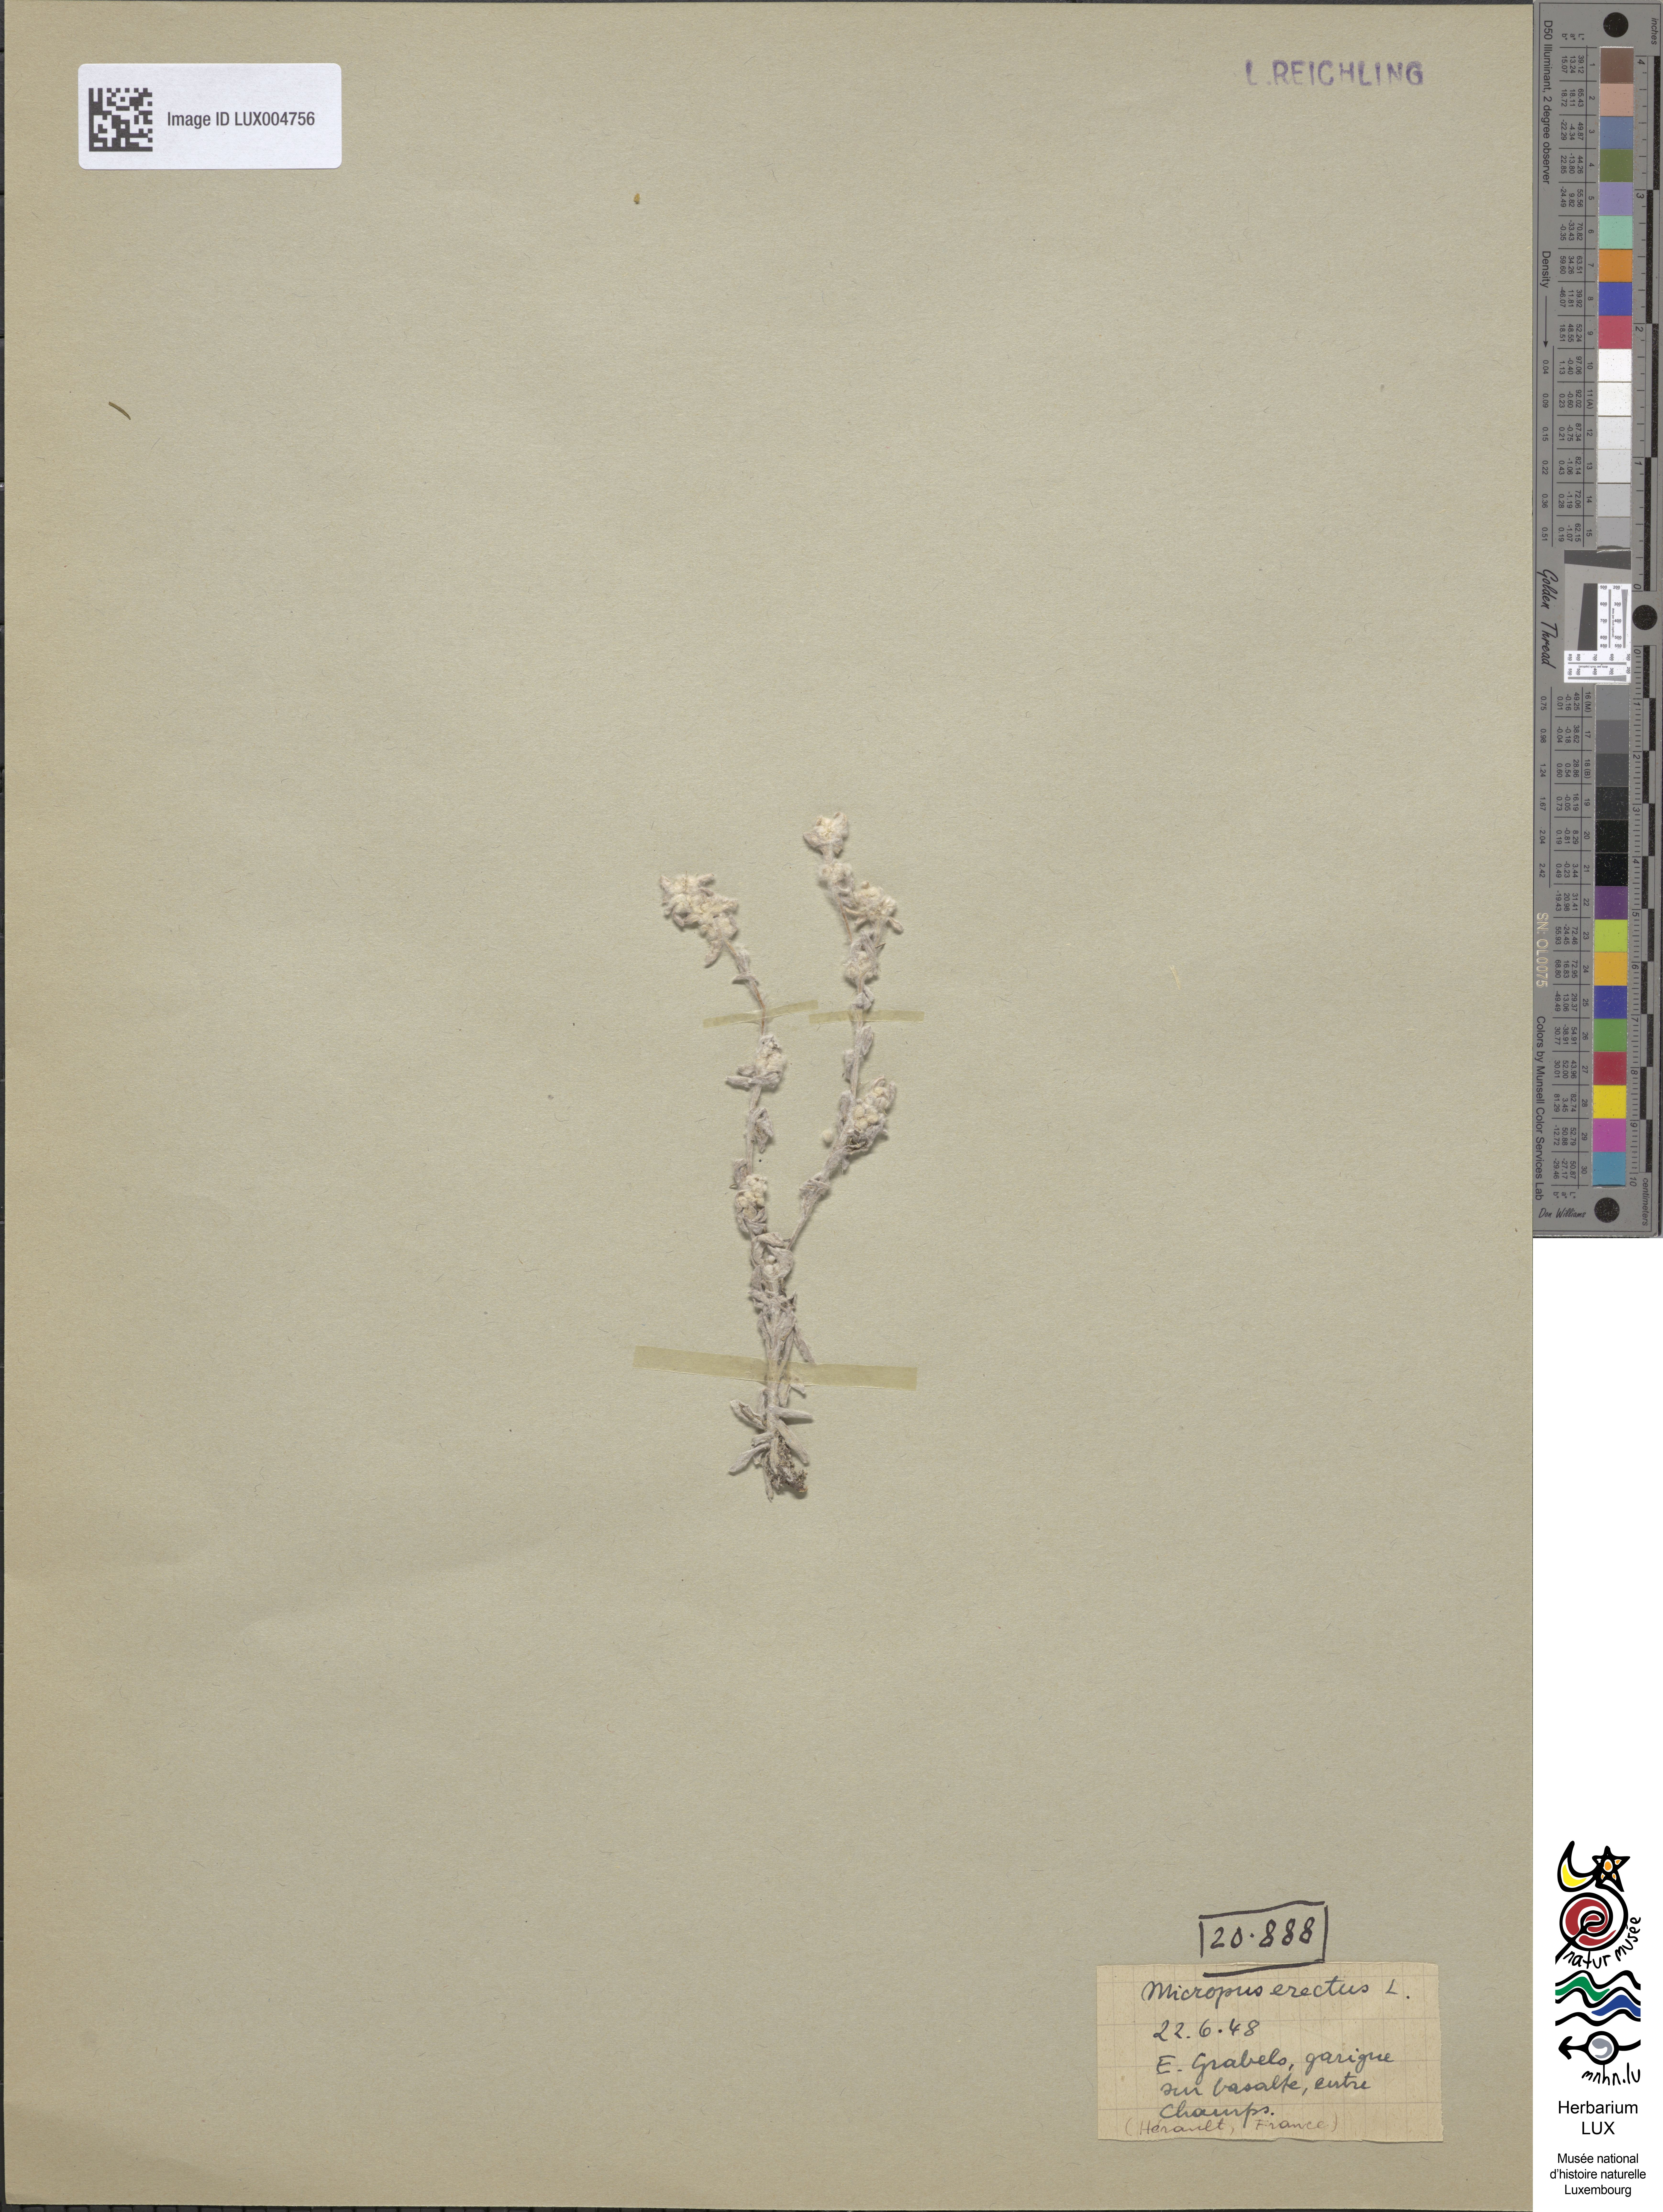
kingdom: Plantae
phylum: Tracheophyta
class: Magnoliopsida
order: Asterales
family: Asteraceae
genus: Bombycilaena
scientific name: Bombycilaena erecta
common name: Micropus
